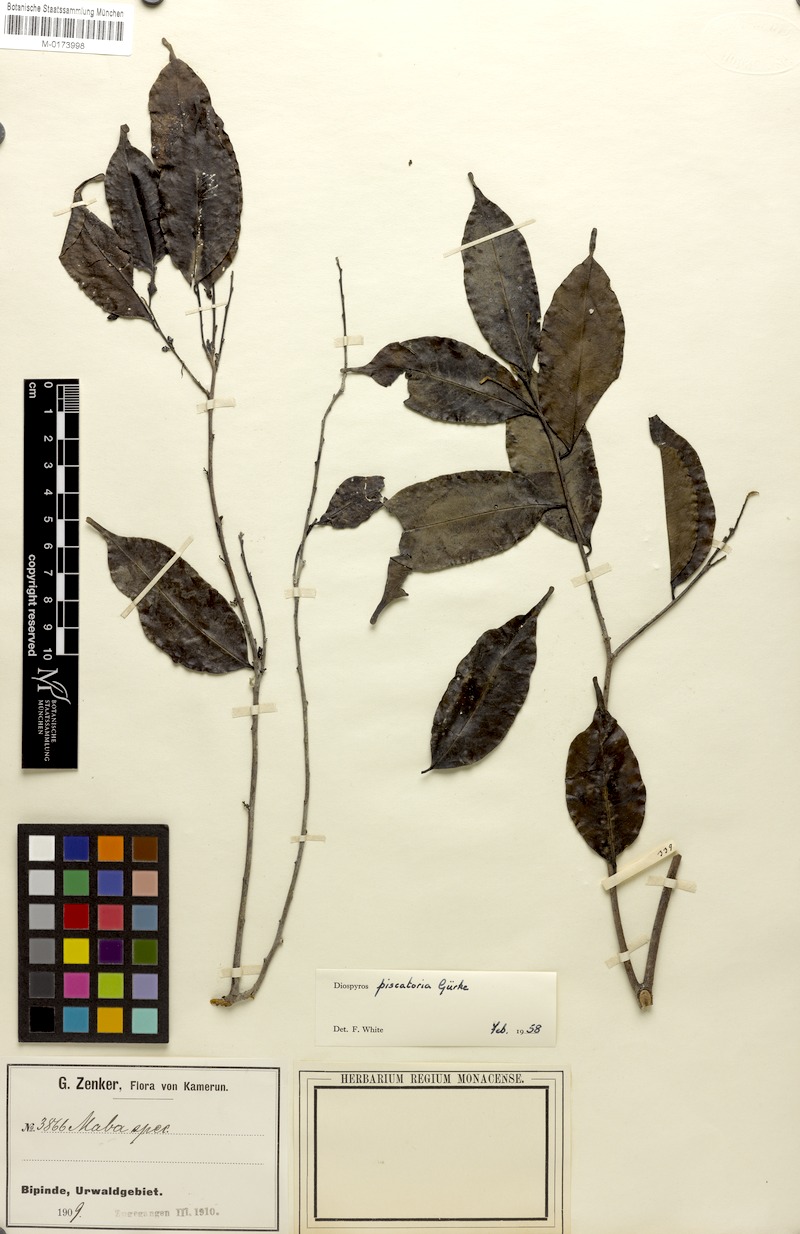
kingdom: Plantae
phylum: Tracheophyta
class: Magnoliopsida
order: Ericales
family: Ebenaceae
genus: Diospyros
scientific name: Diospyros piscatoria
